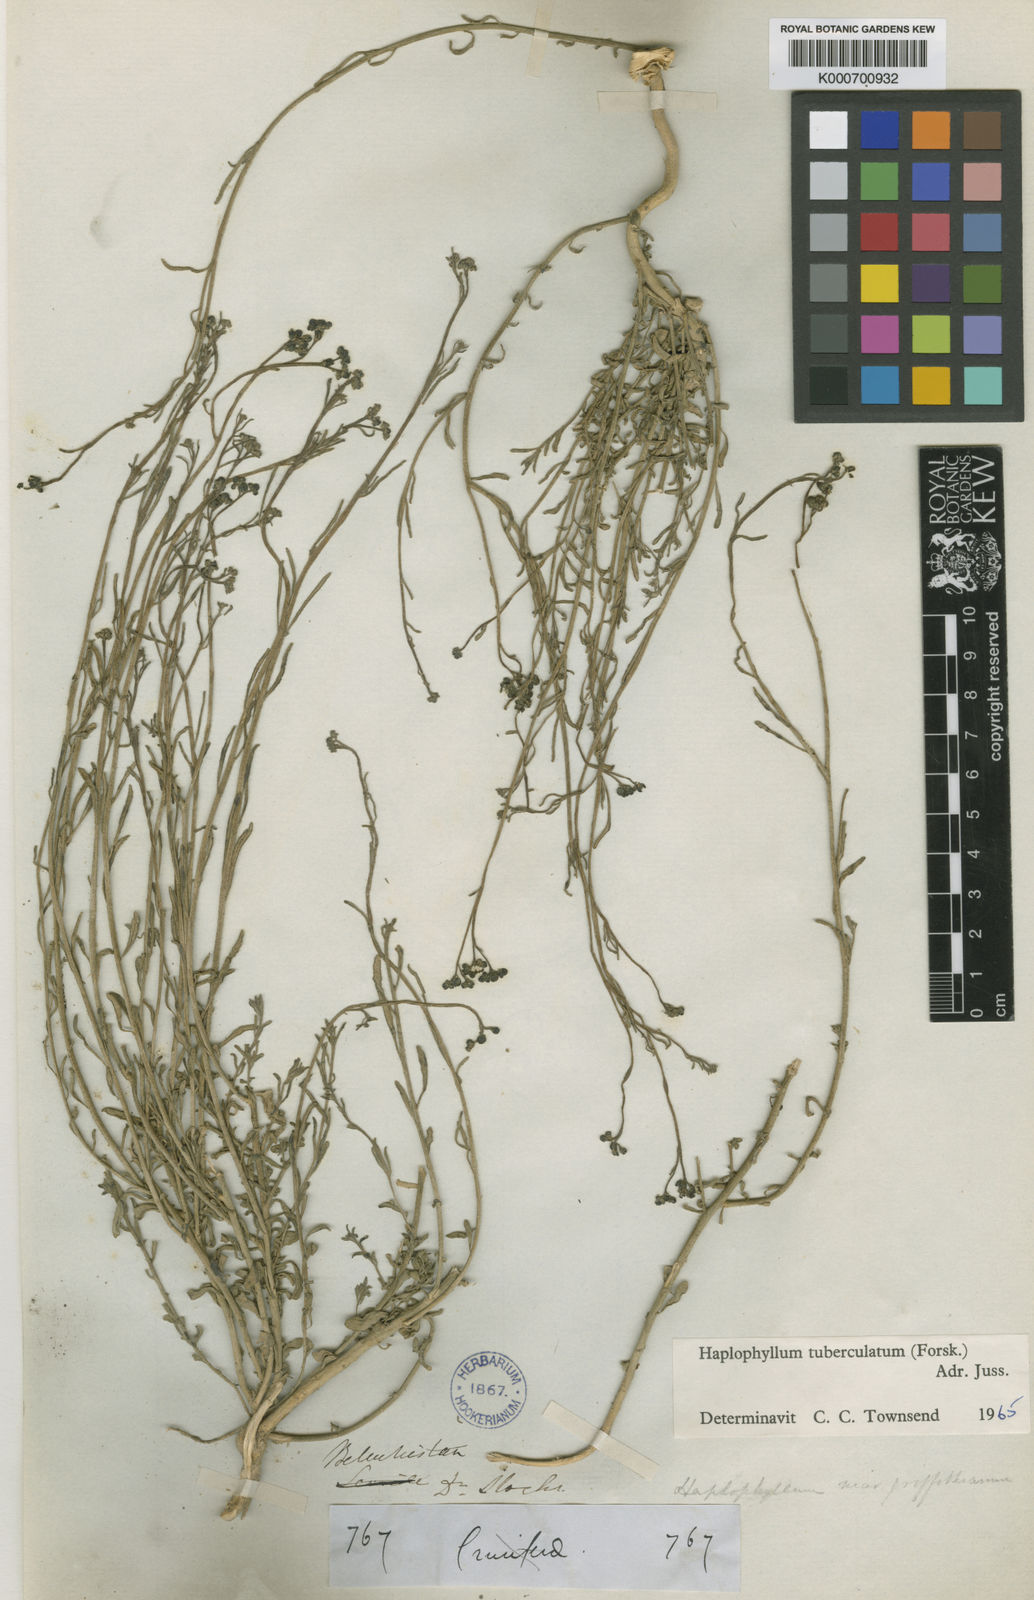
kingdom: Plantae
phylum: Tracheophyta
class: Magnoliopsida
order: Sapindales
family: Rutaceae
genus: Haplophyllum
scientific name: Haplophyllum tuberculatum
